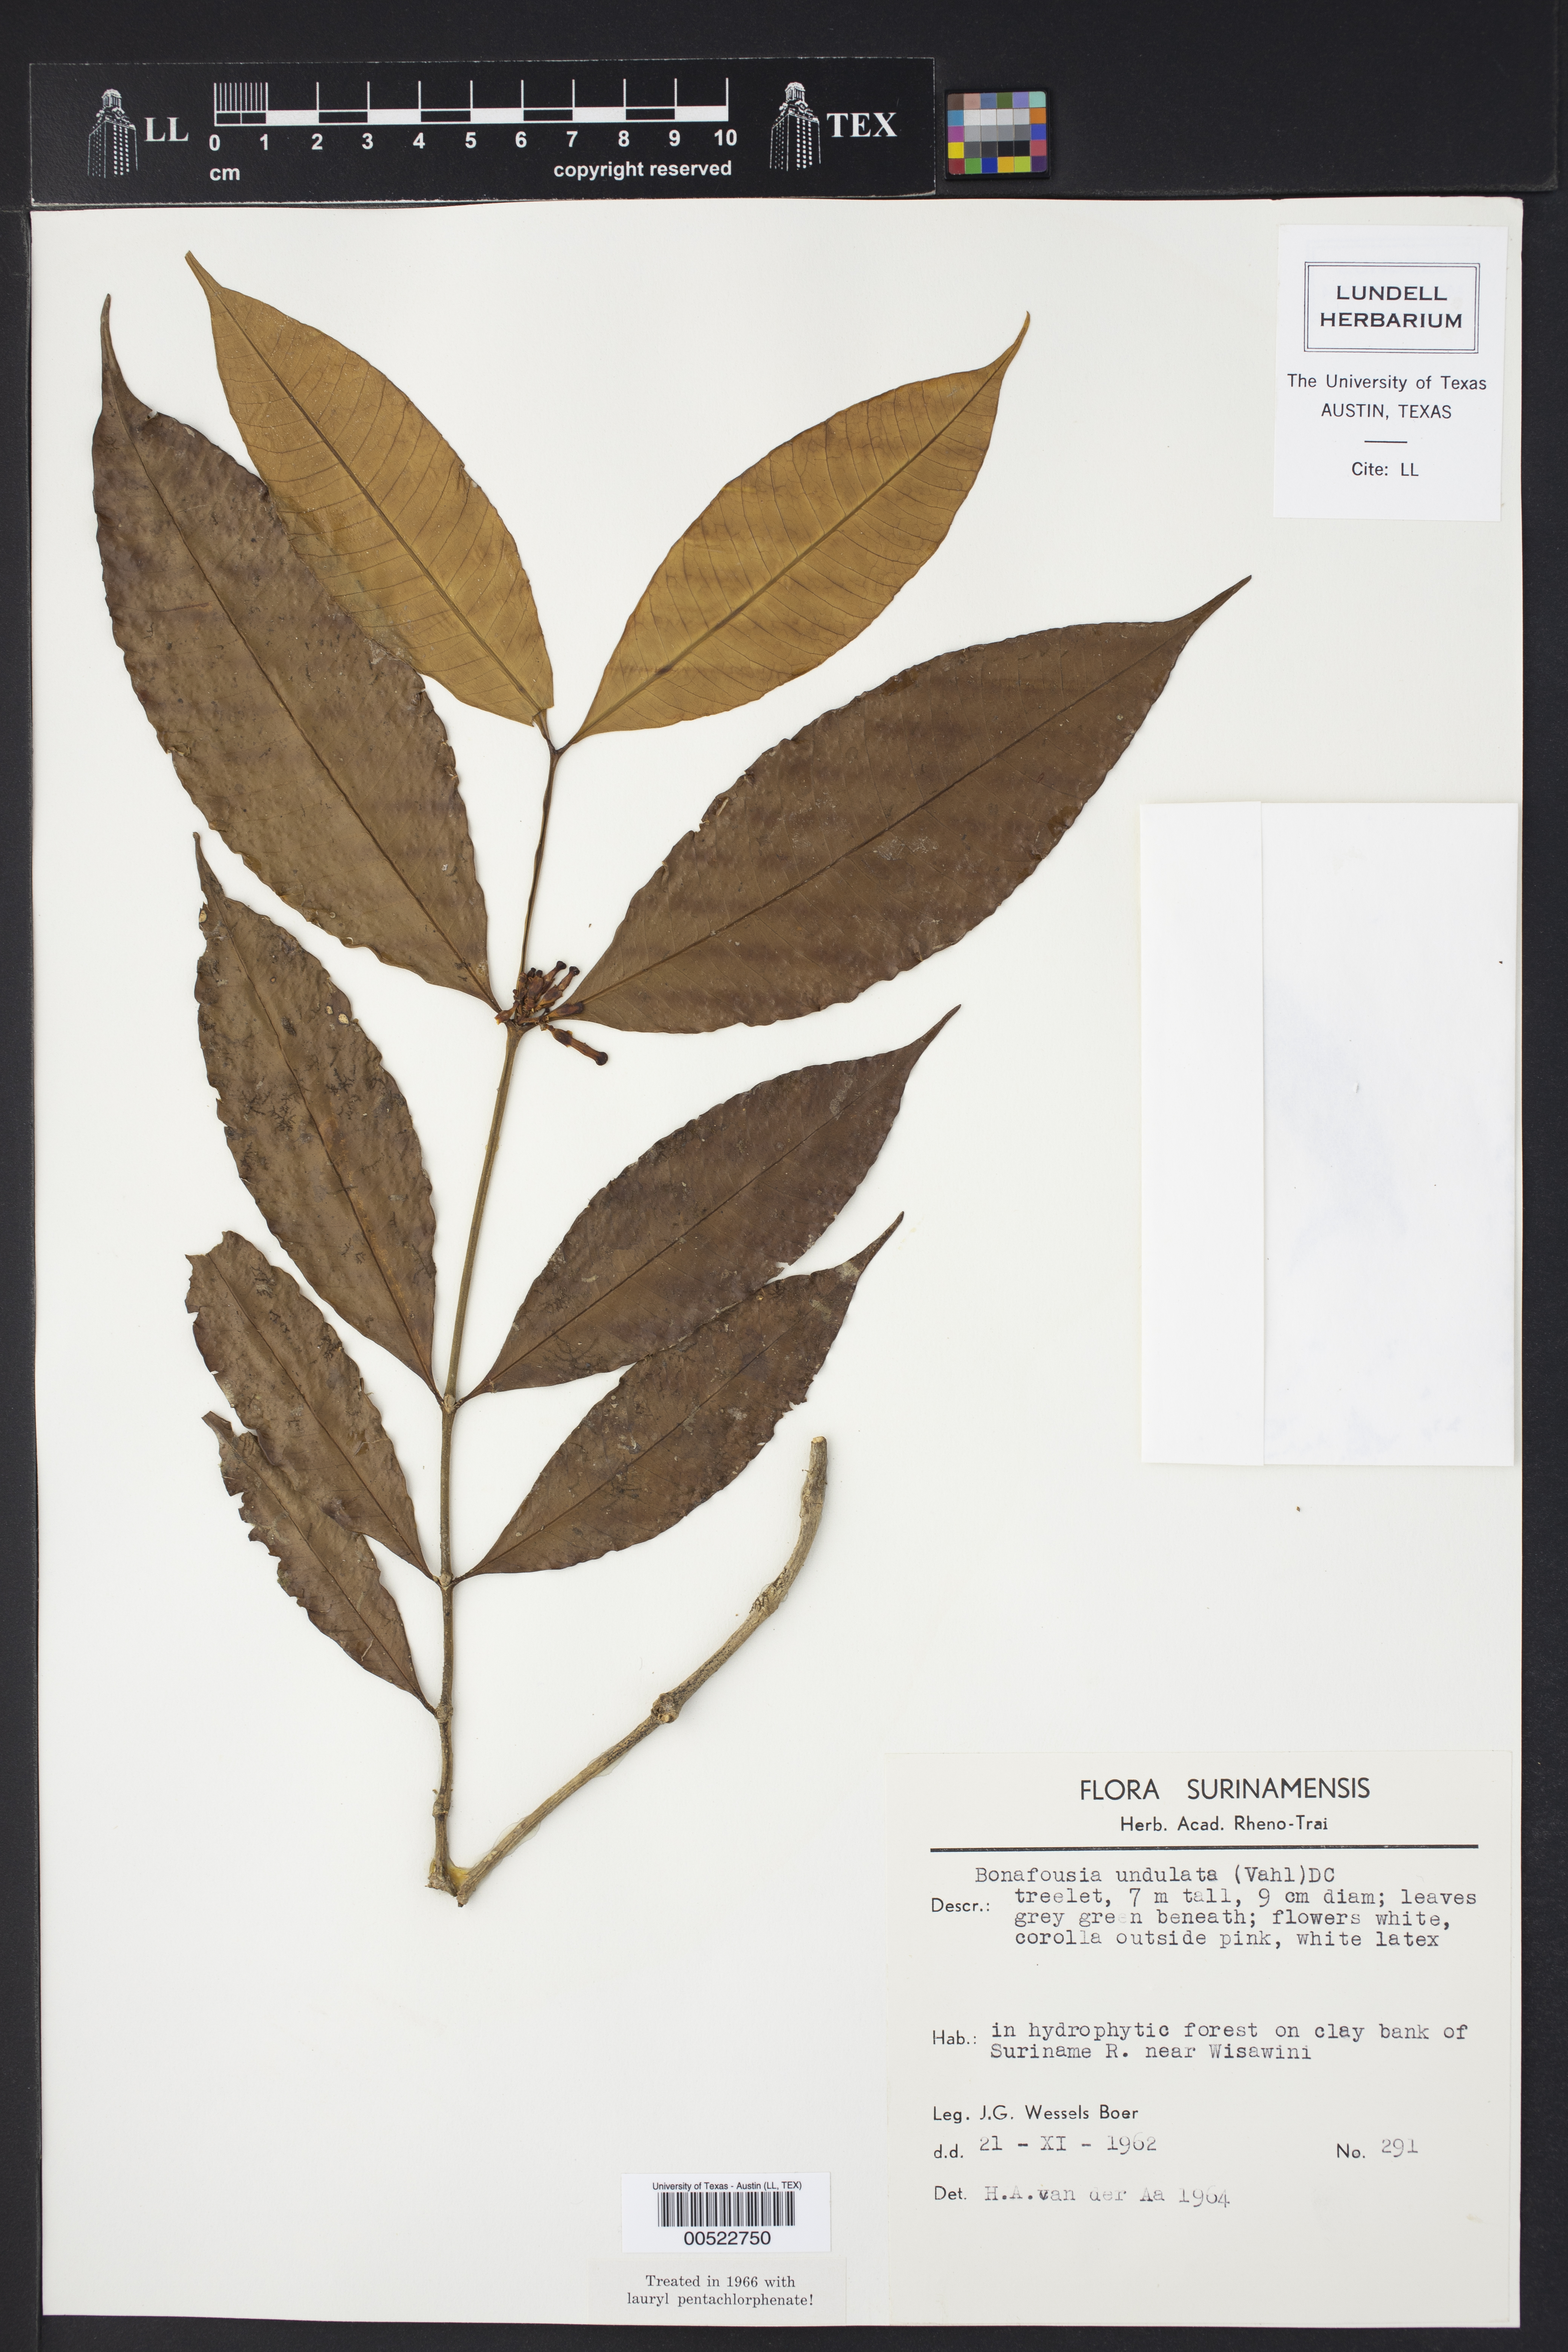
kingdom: Plantae
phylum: Tracheophyta
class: Magnoliopsida
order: Gentianales
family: Apocynaceae
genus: Tabernaemontana
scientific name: Tabernaemontana undulata
